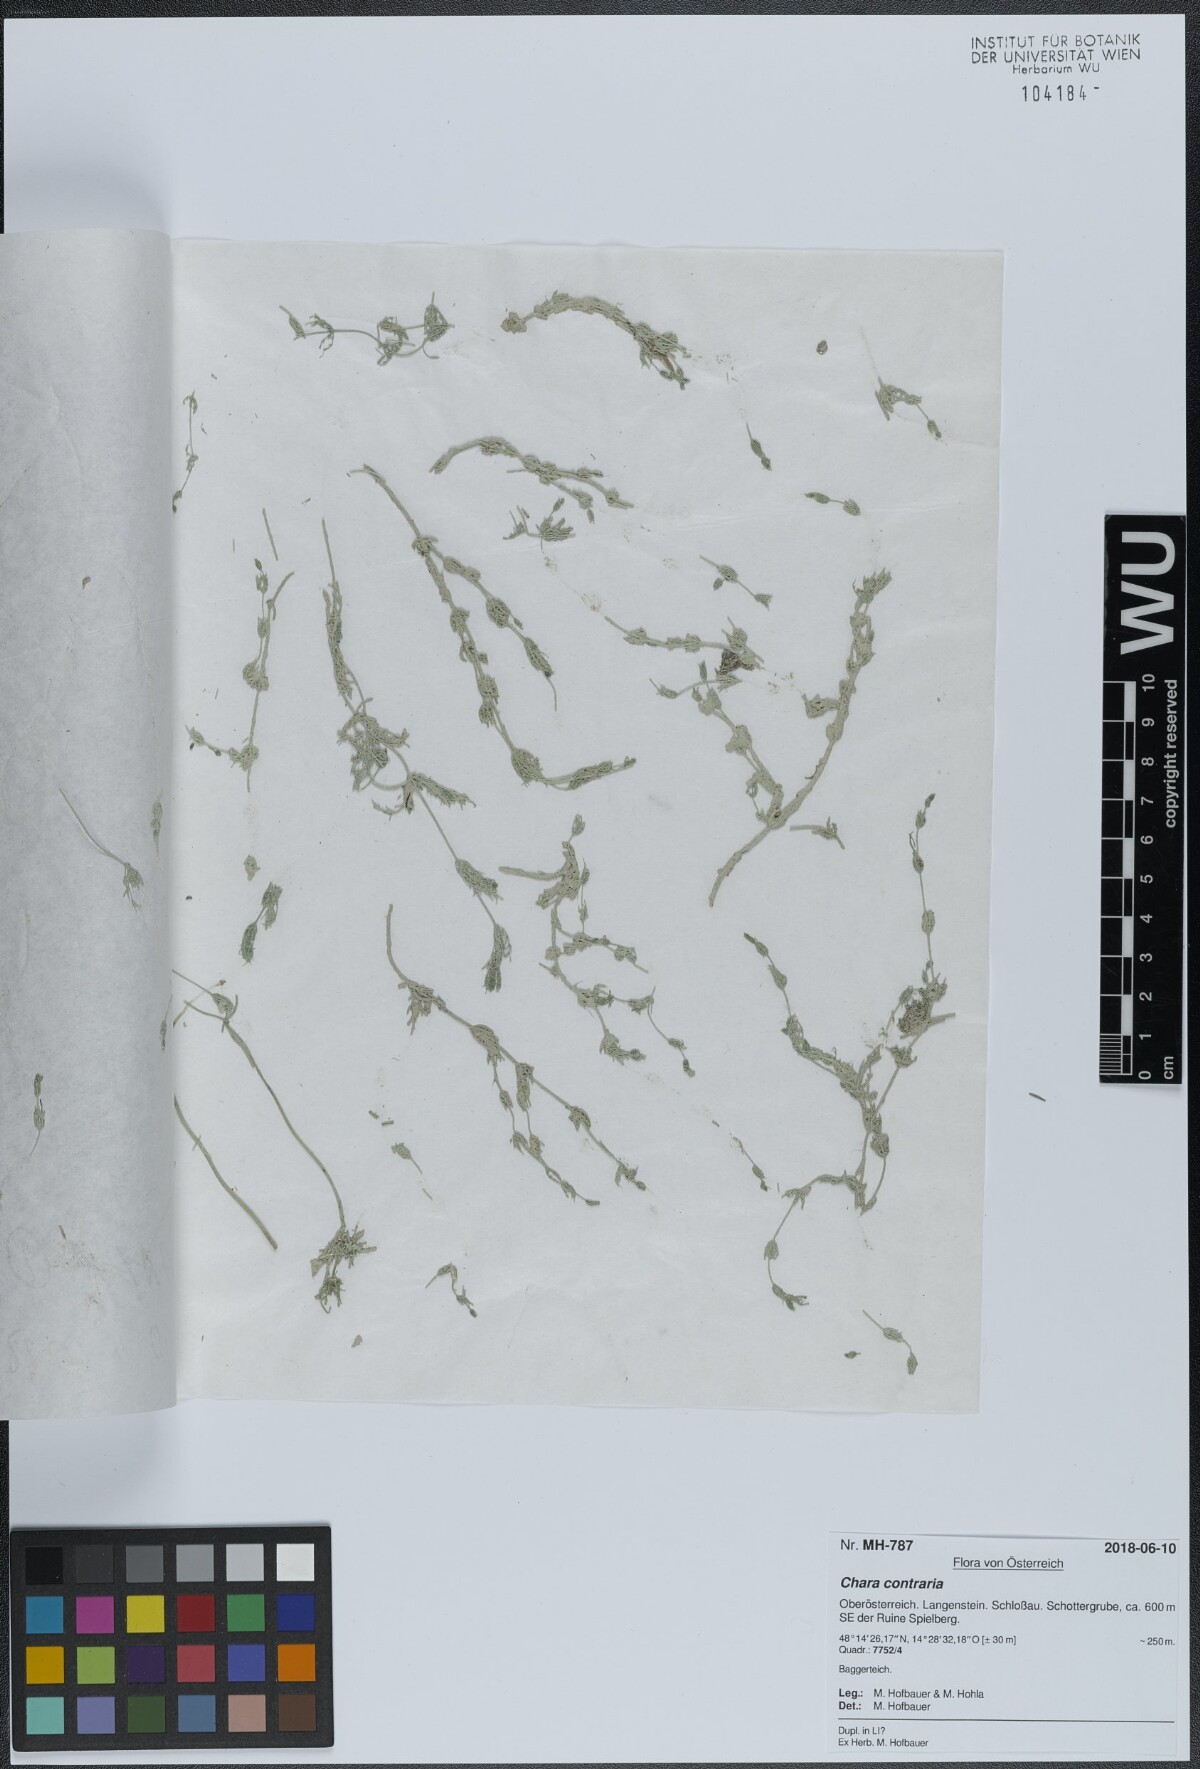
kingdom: Plantae
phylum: Charophyta
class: Charophyceae
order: Charales
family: Characeae
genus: Chara
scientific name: Chara contraria
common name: Opposite stonewort
